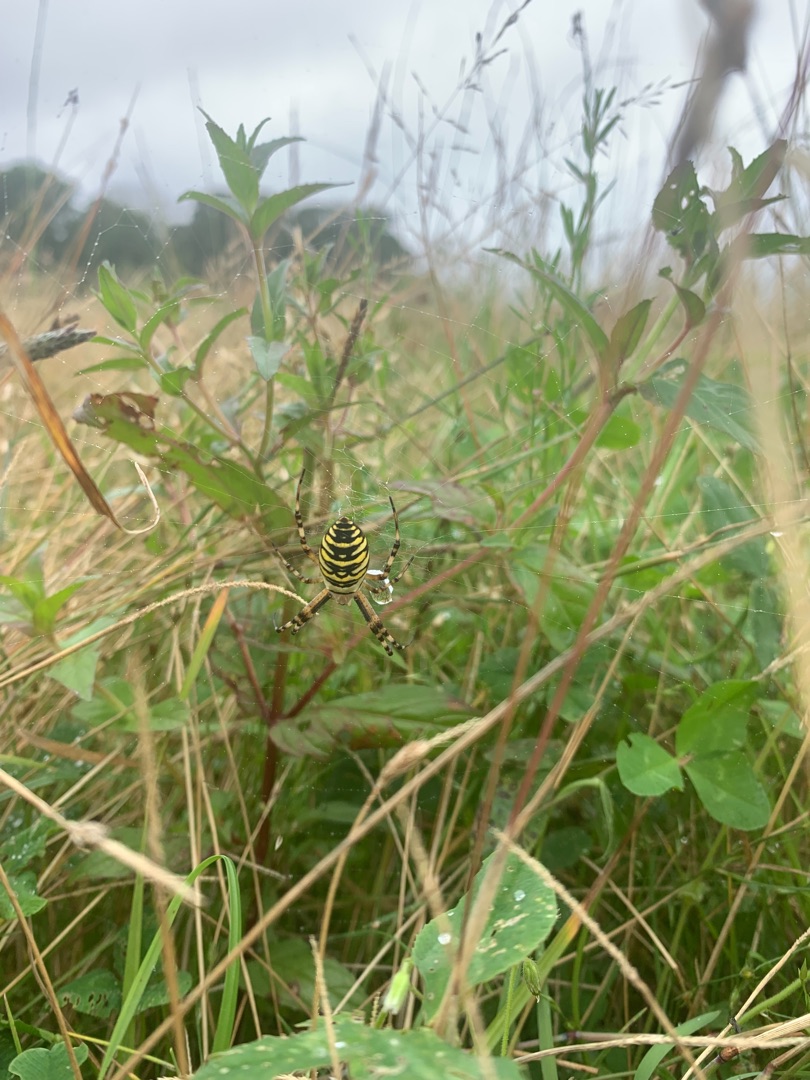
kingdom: Animalia
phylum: Arthropoda
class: Arachnida
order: Araneae
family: Araneidae
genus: Argiope
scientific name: Argiope bruennichi
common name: Hvepseedderkop
